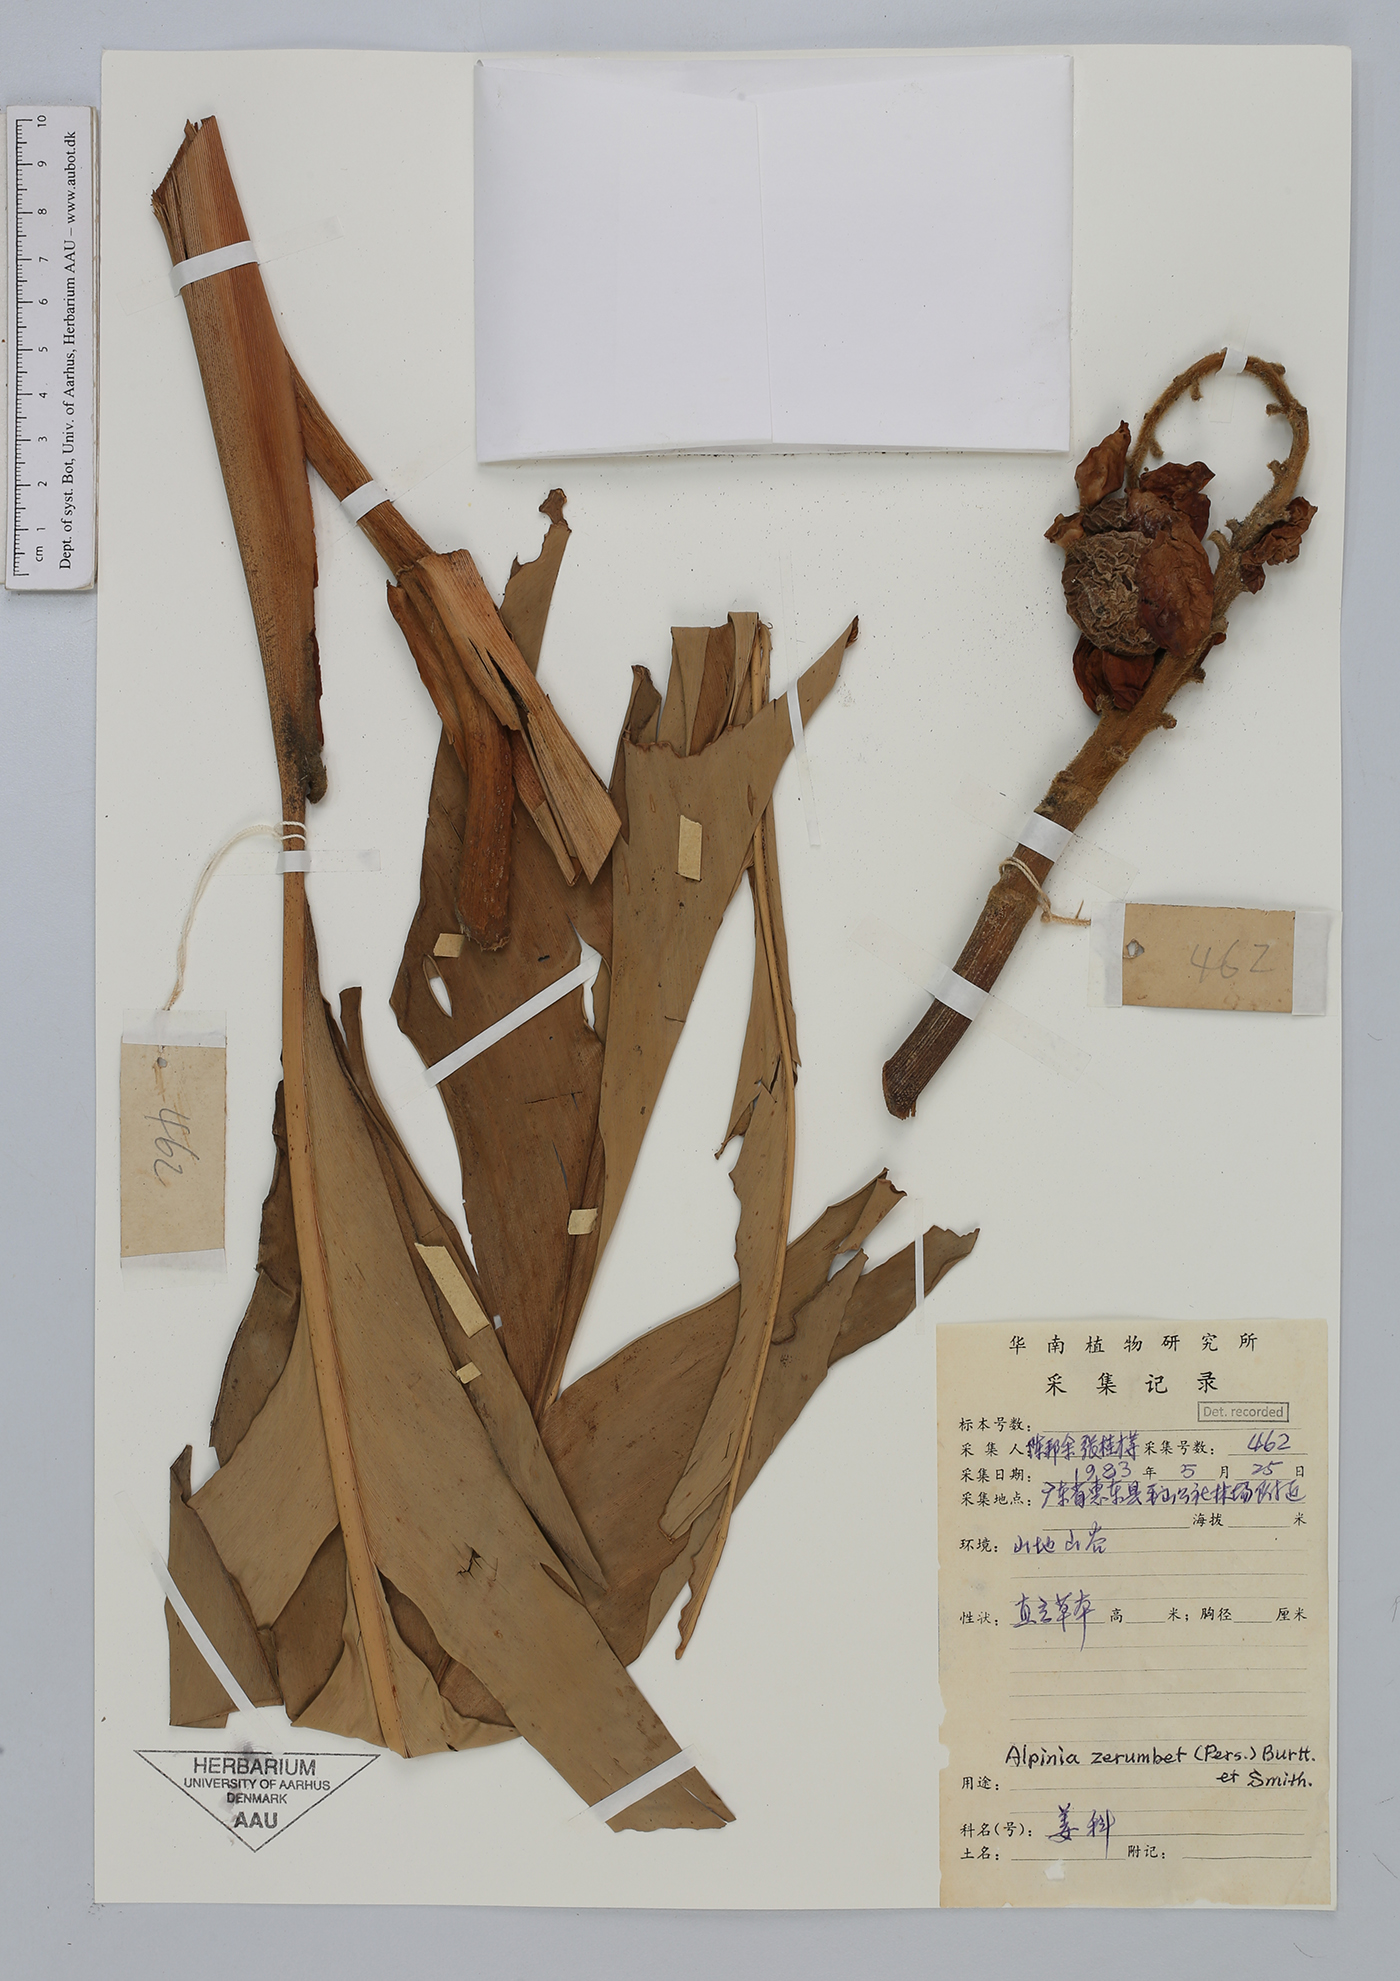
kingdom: Plantae
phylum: Tracheophyta
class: Liliopsida
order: Zingiberales
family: Zingiberaceae
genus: Alpinia
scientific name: Alpinia zerumbet
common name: Shellplant
